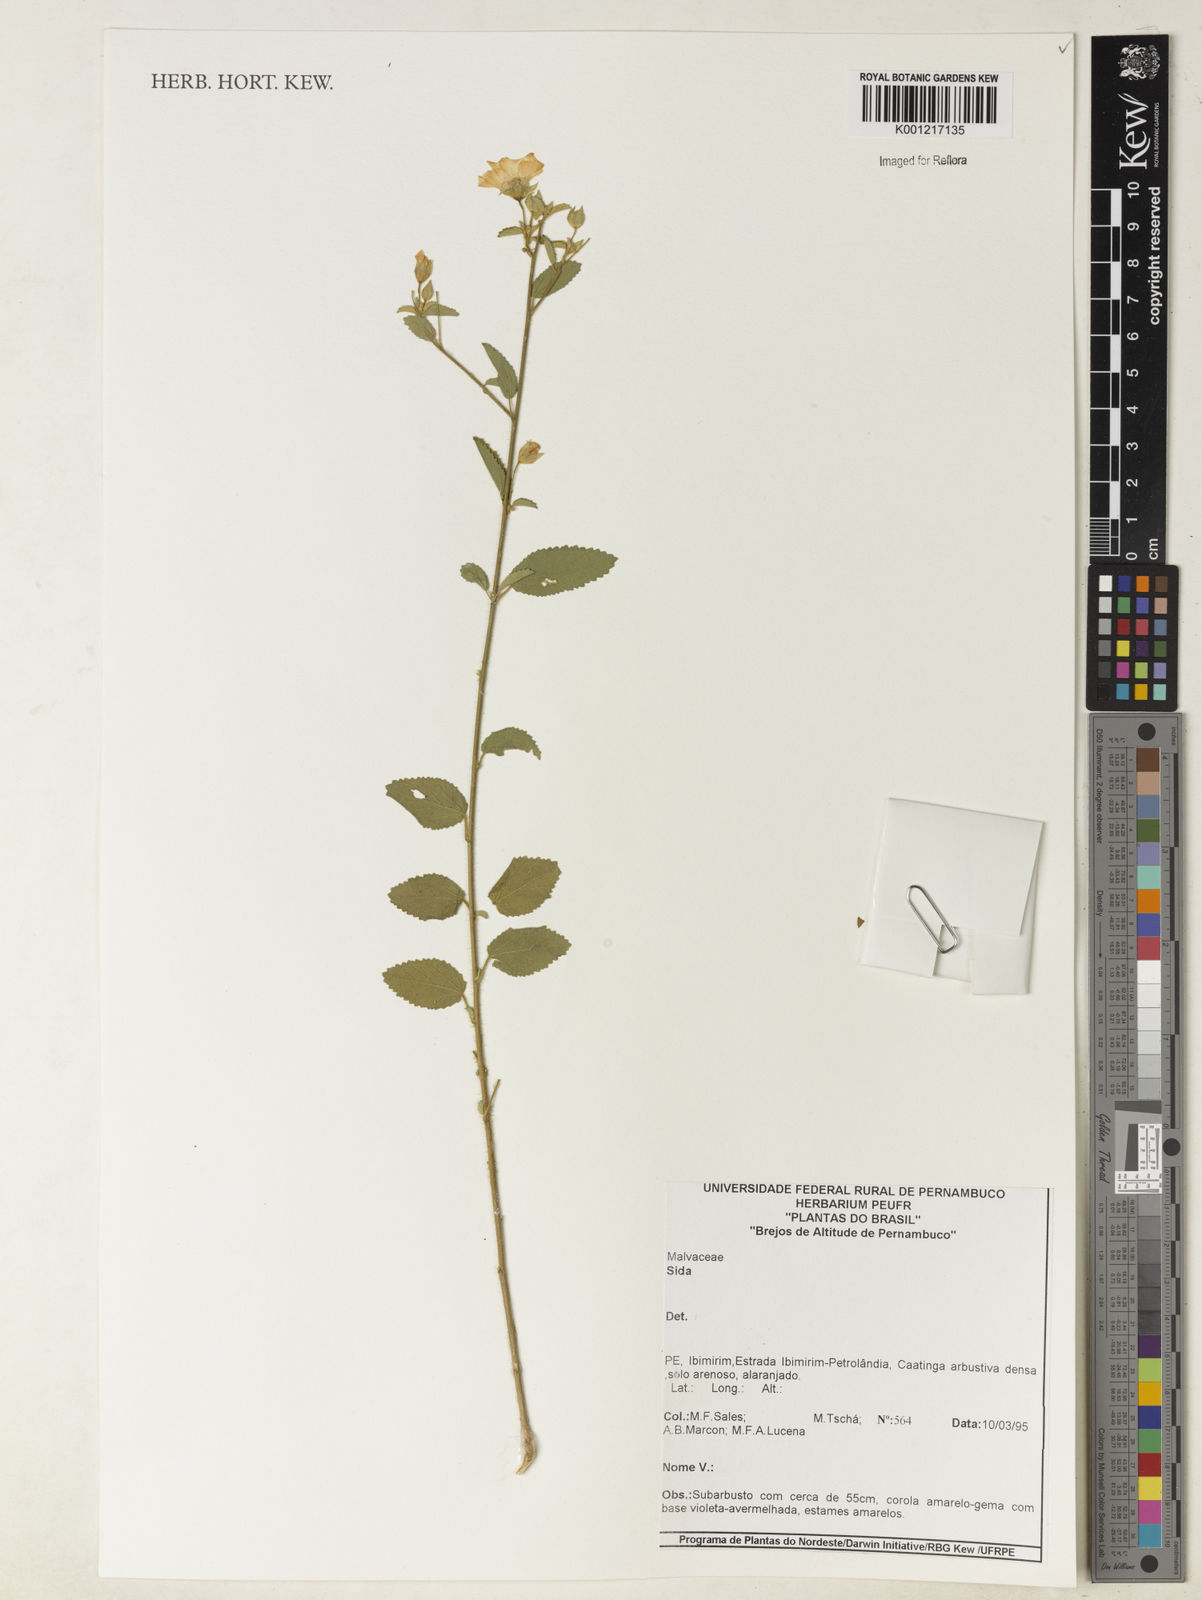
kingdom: Plantae
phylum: Tracheophyta
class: Magnoliopsida
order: Malvales
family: Malvaceae
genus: Sida
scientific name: Sida
